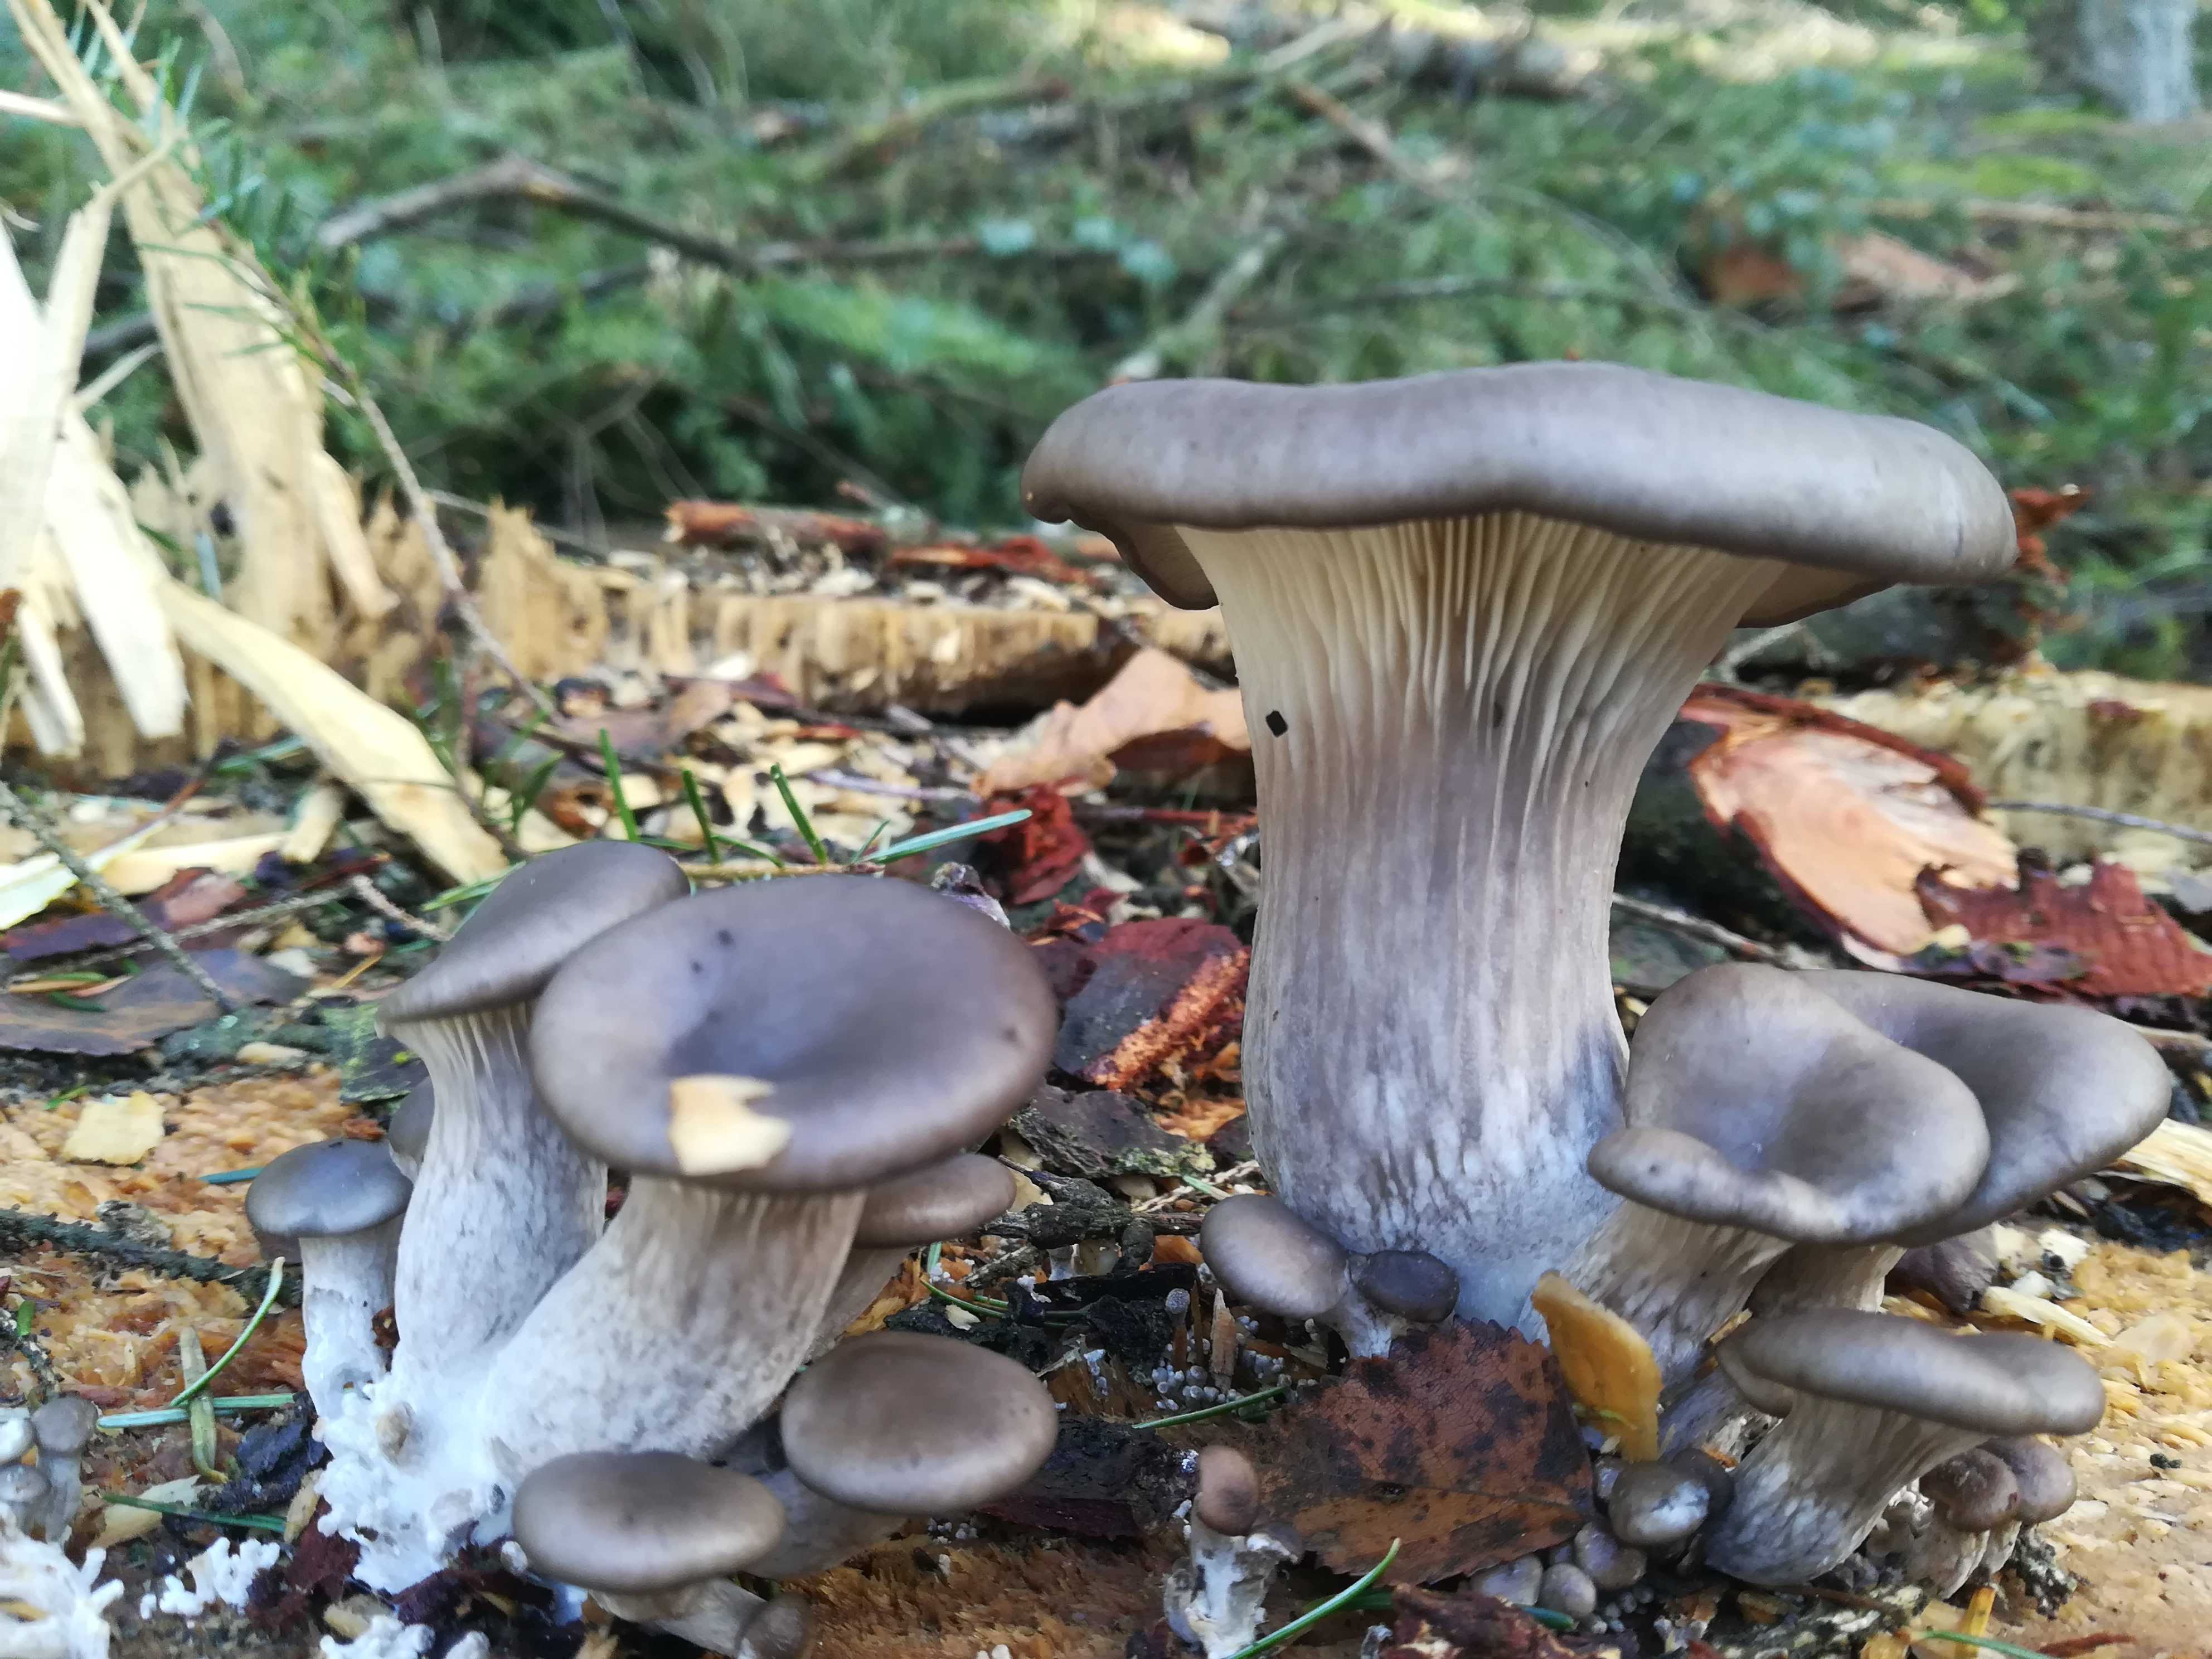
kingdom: Fungi
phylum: Basidiomycota
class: Agaricomycetes
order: Agaricales
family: Pleurotaceae
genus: Pleurotus
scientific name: Pleurotus ostreatus
